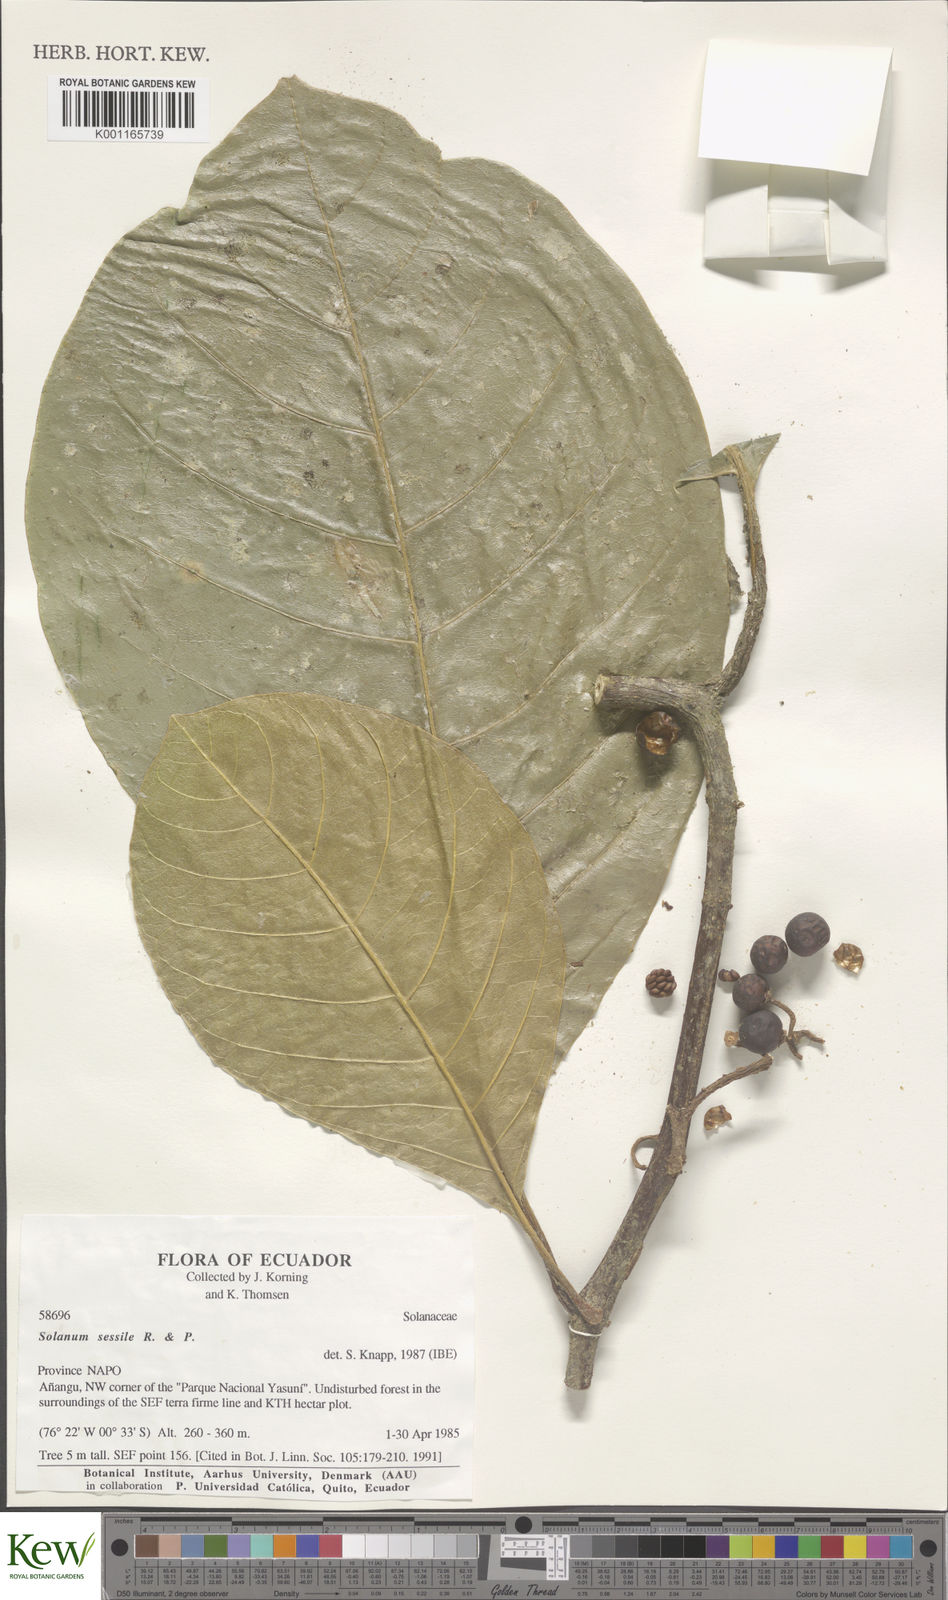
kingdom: Plantae
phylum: Tracheophyta
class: Magnoliopsida
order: Solanales
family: Solanaceae
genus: Solanum
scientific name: Solanum sessile
